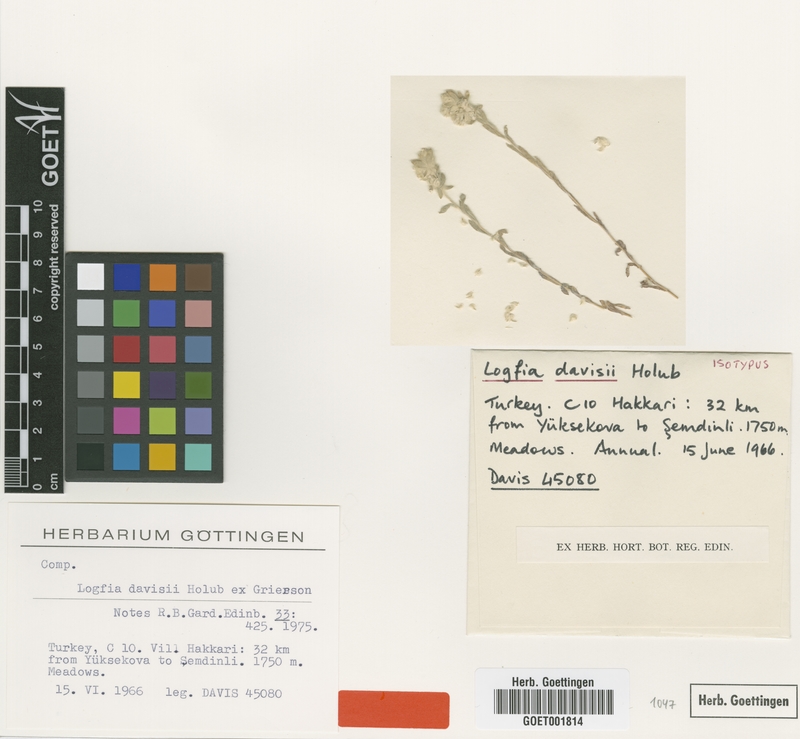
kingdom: Plantae
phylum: Tracheophyta
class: Magnoliopsida
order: Asterales
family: Asteraceae
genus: Filago
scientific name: Filago arvensis
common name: Field cudweed
